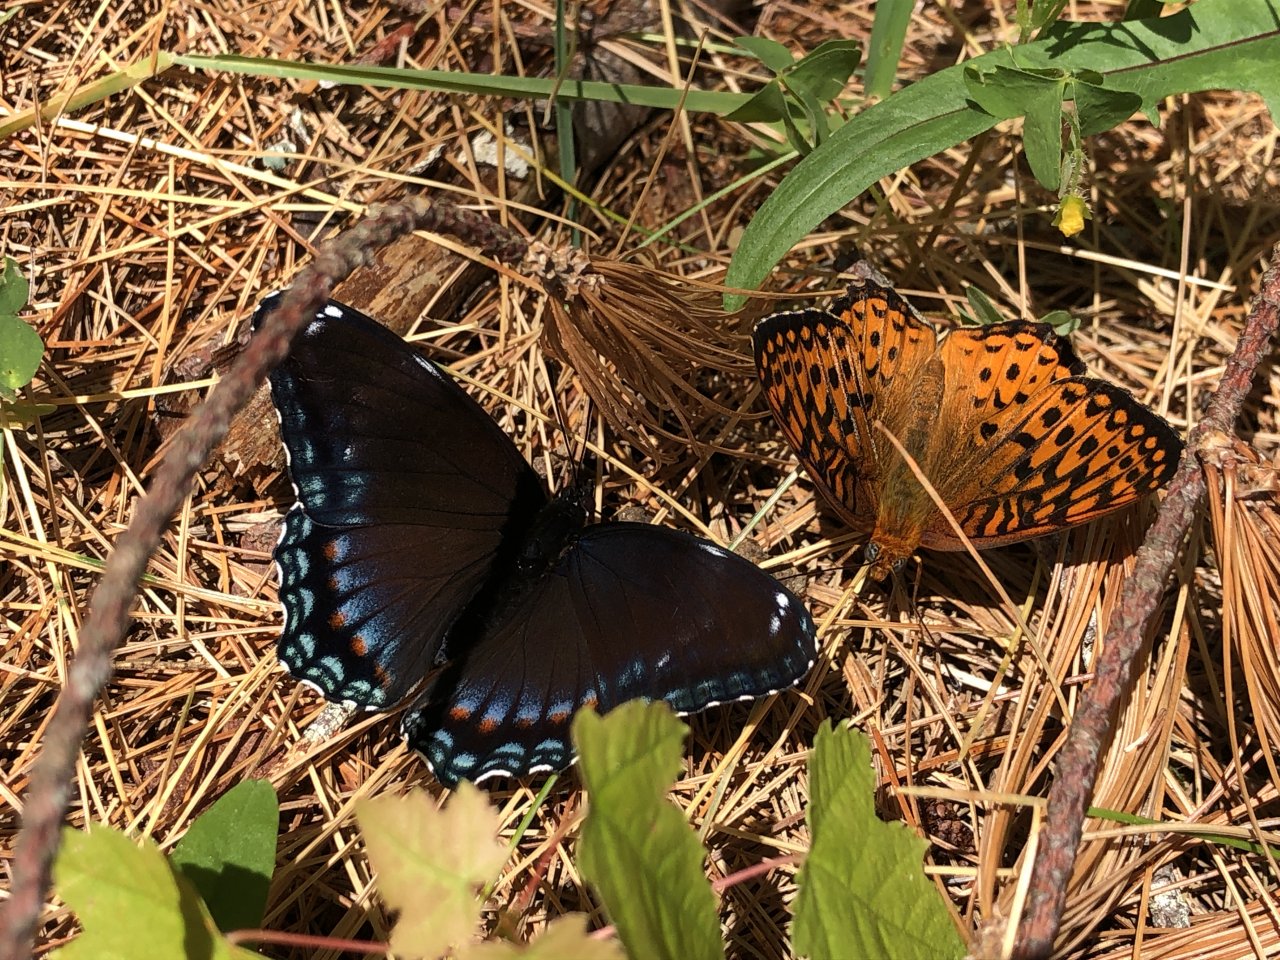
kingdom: Animalia
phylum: Arthropoda
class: Insecta
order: Lepidoptera
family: Nymphalidae
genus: Speyeria
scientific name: Speyeria atlantis
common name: Atlantis Fritillary
